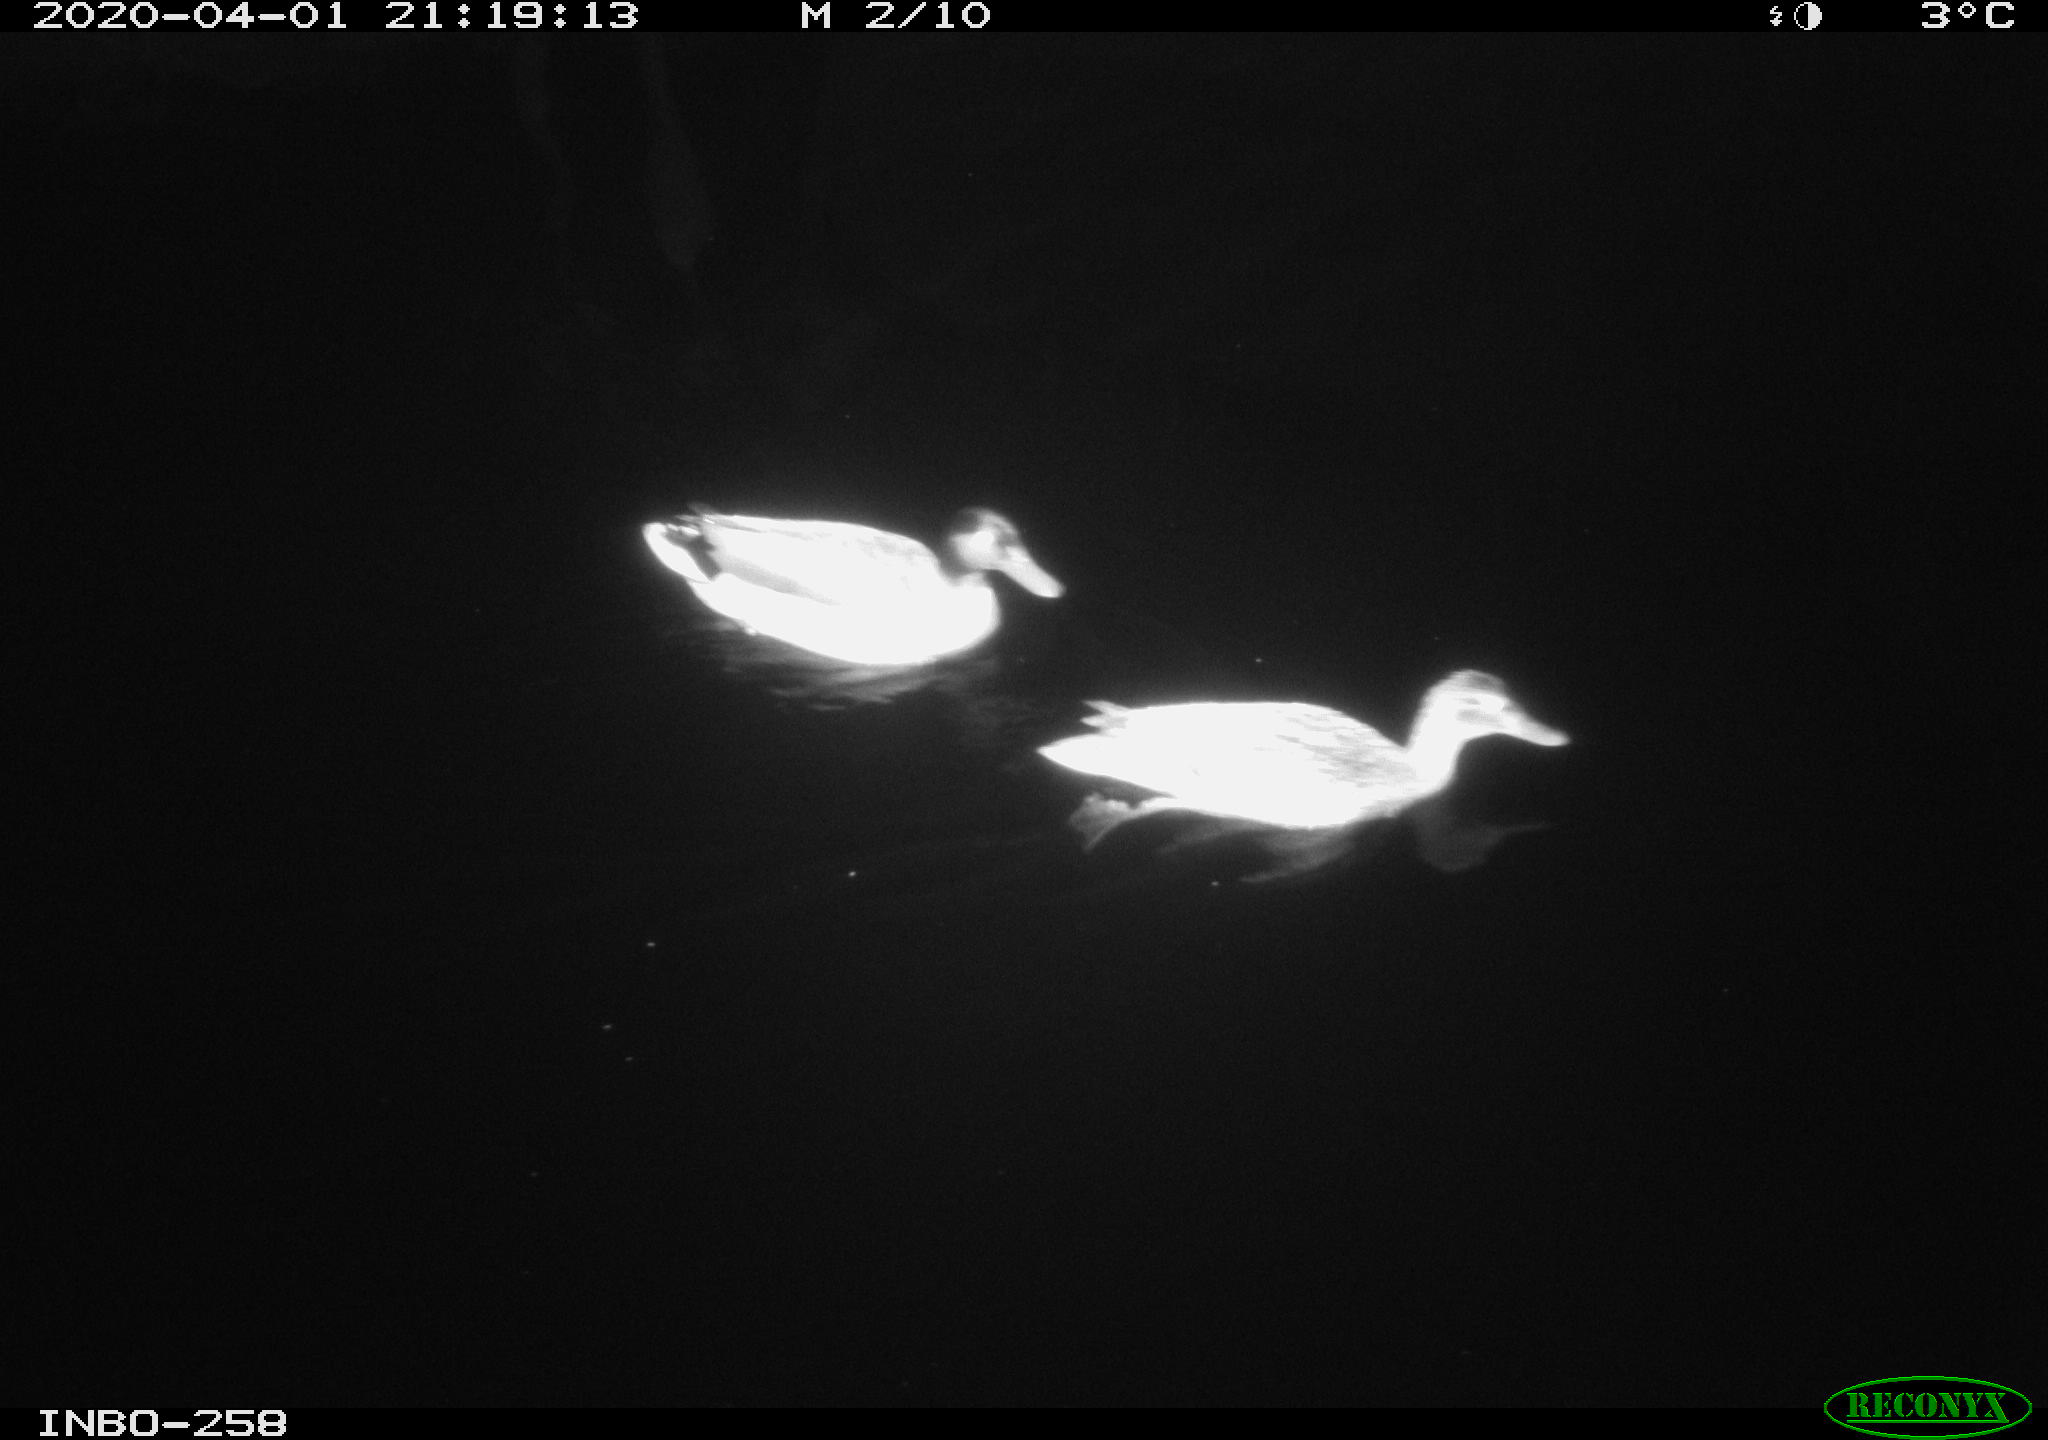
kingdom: Animalia
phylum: Chordata
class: Aves
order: Anseriformes
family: Anatidae
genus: Anas
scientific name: Anas platyrhynchos
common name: Mallard
